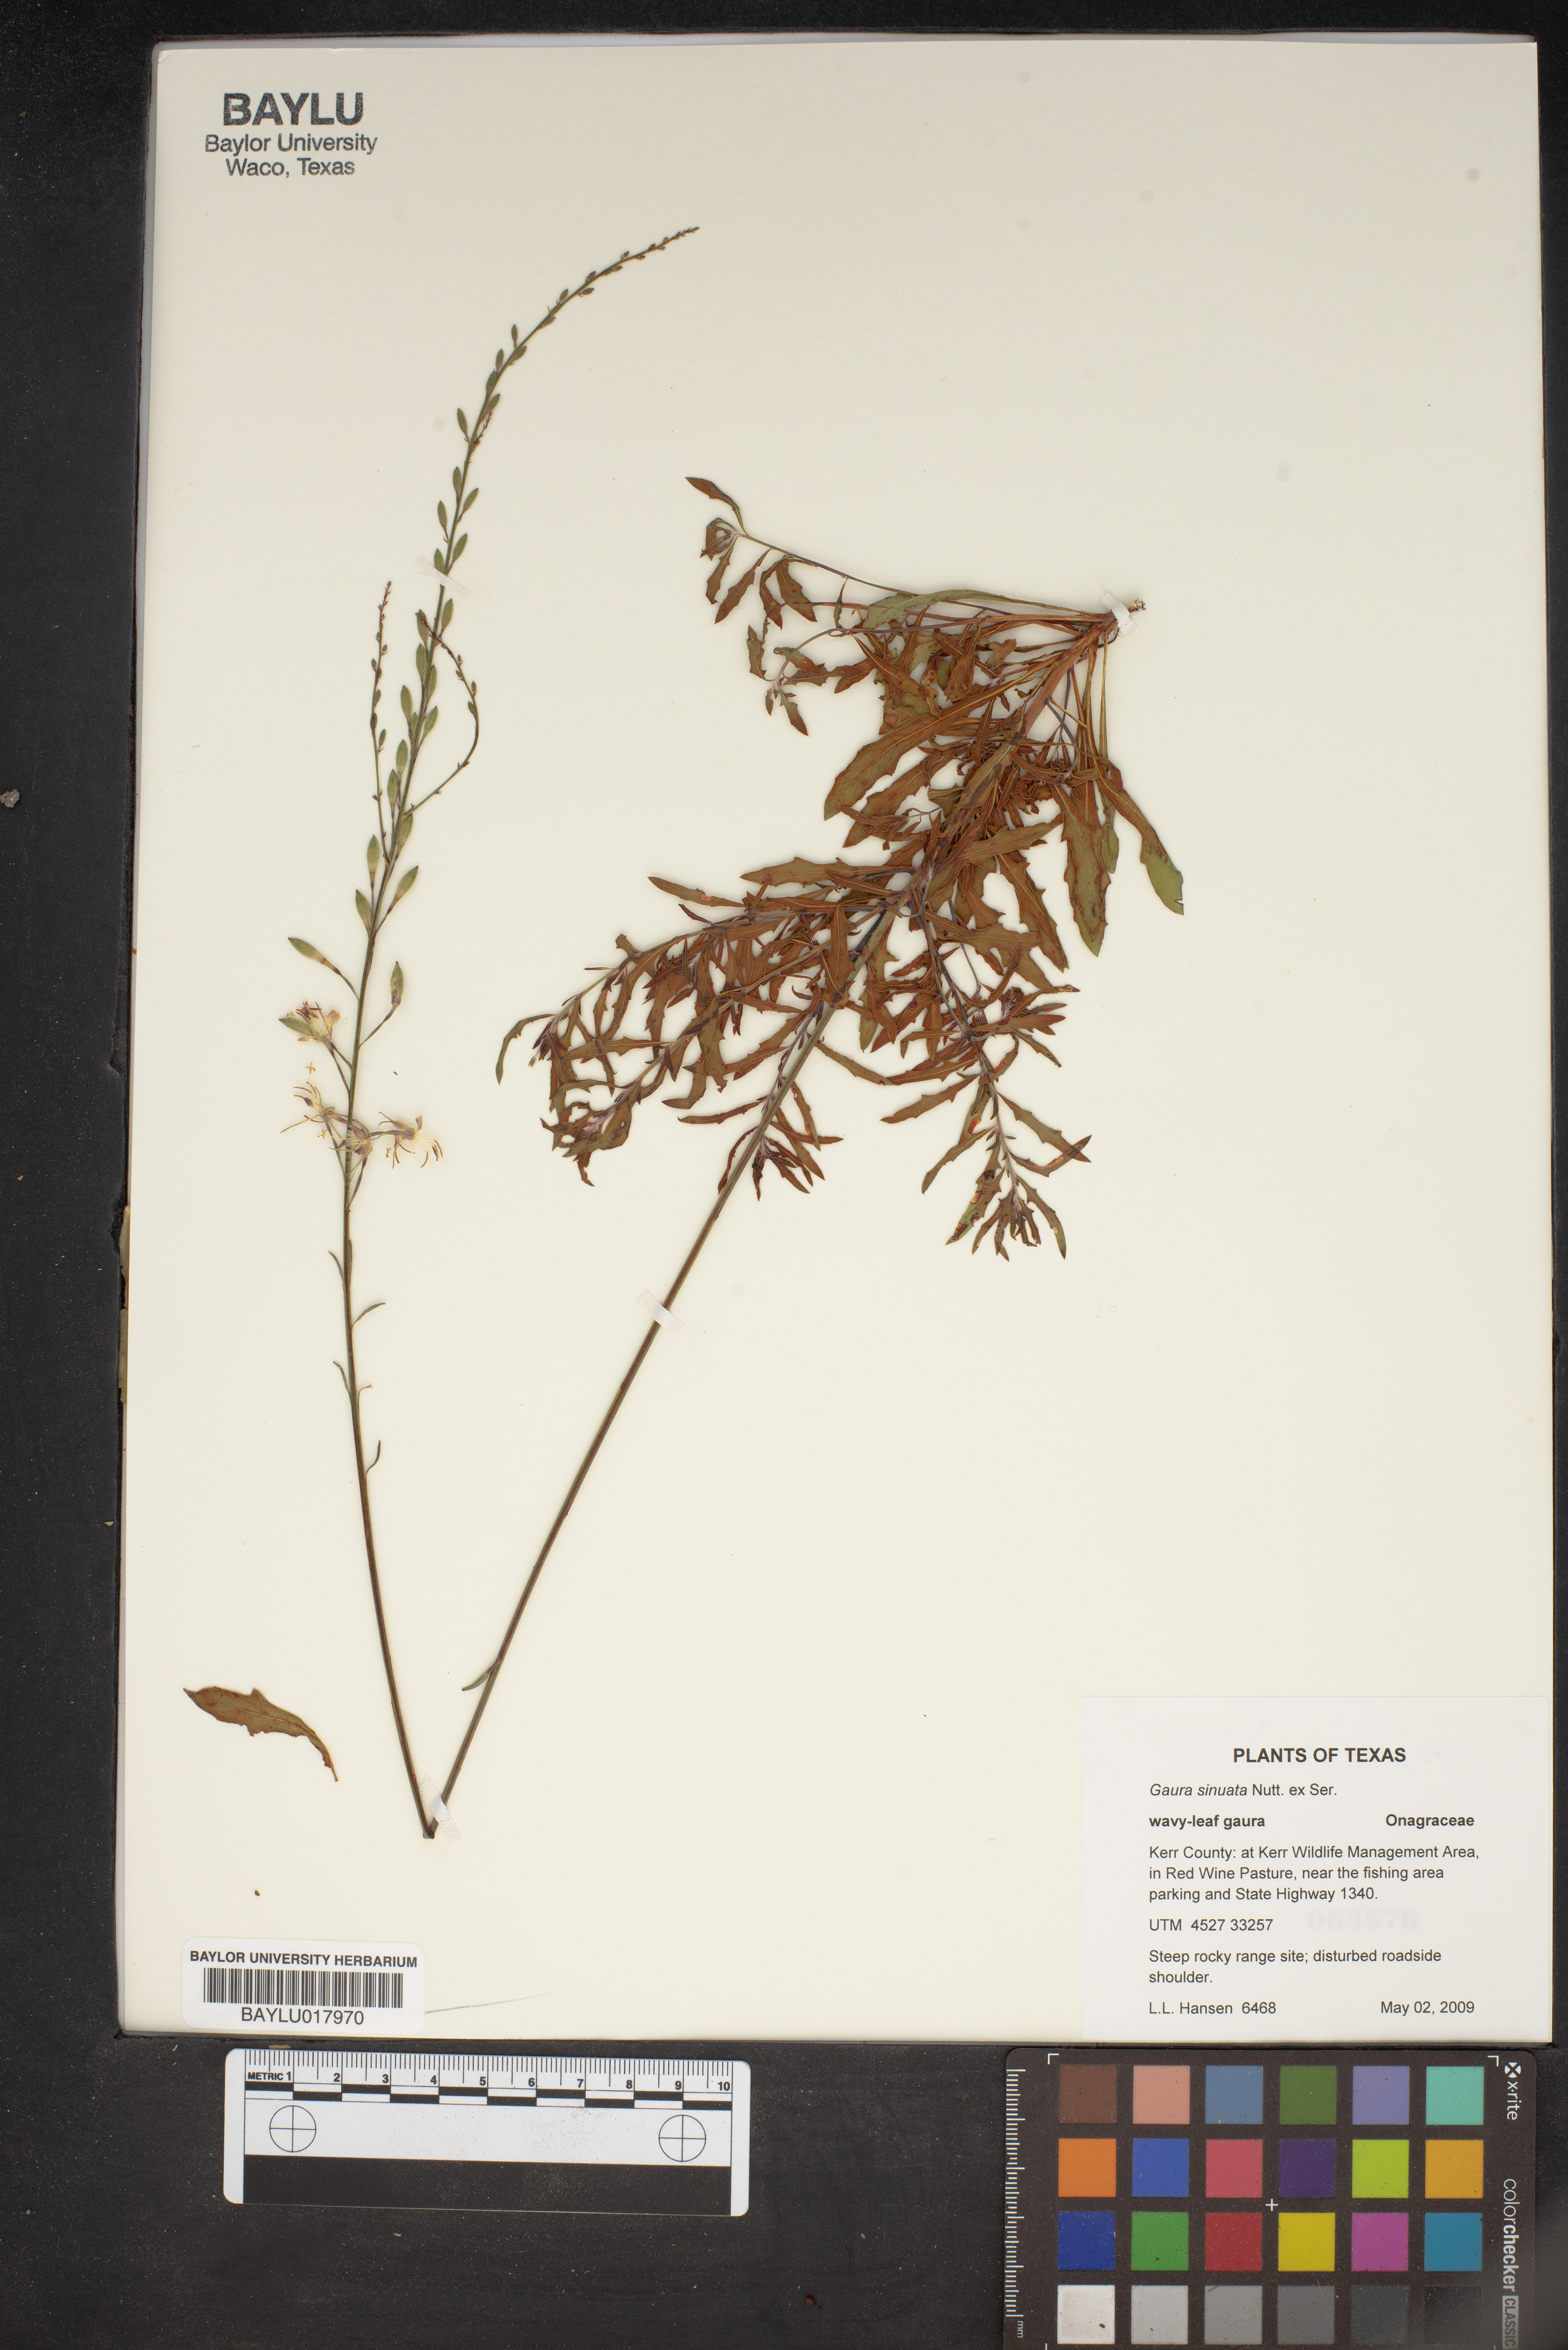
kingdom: Plantae
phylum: Tracheophyta
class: Magnoliopsida
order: Myrtales
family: Onagraceae
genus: Oenothera
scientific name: Oenothera sinuosa
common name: Wavyleaf beeblossom
